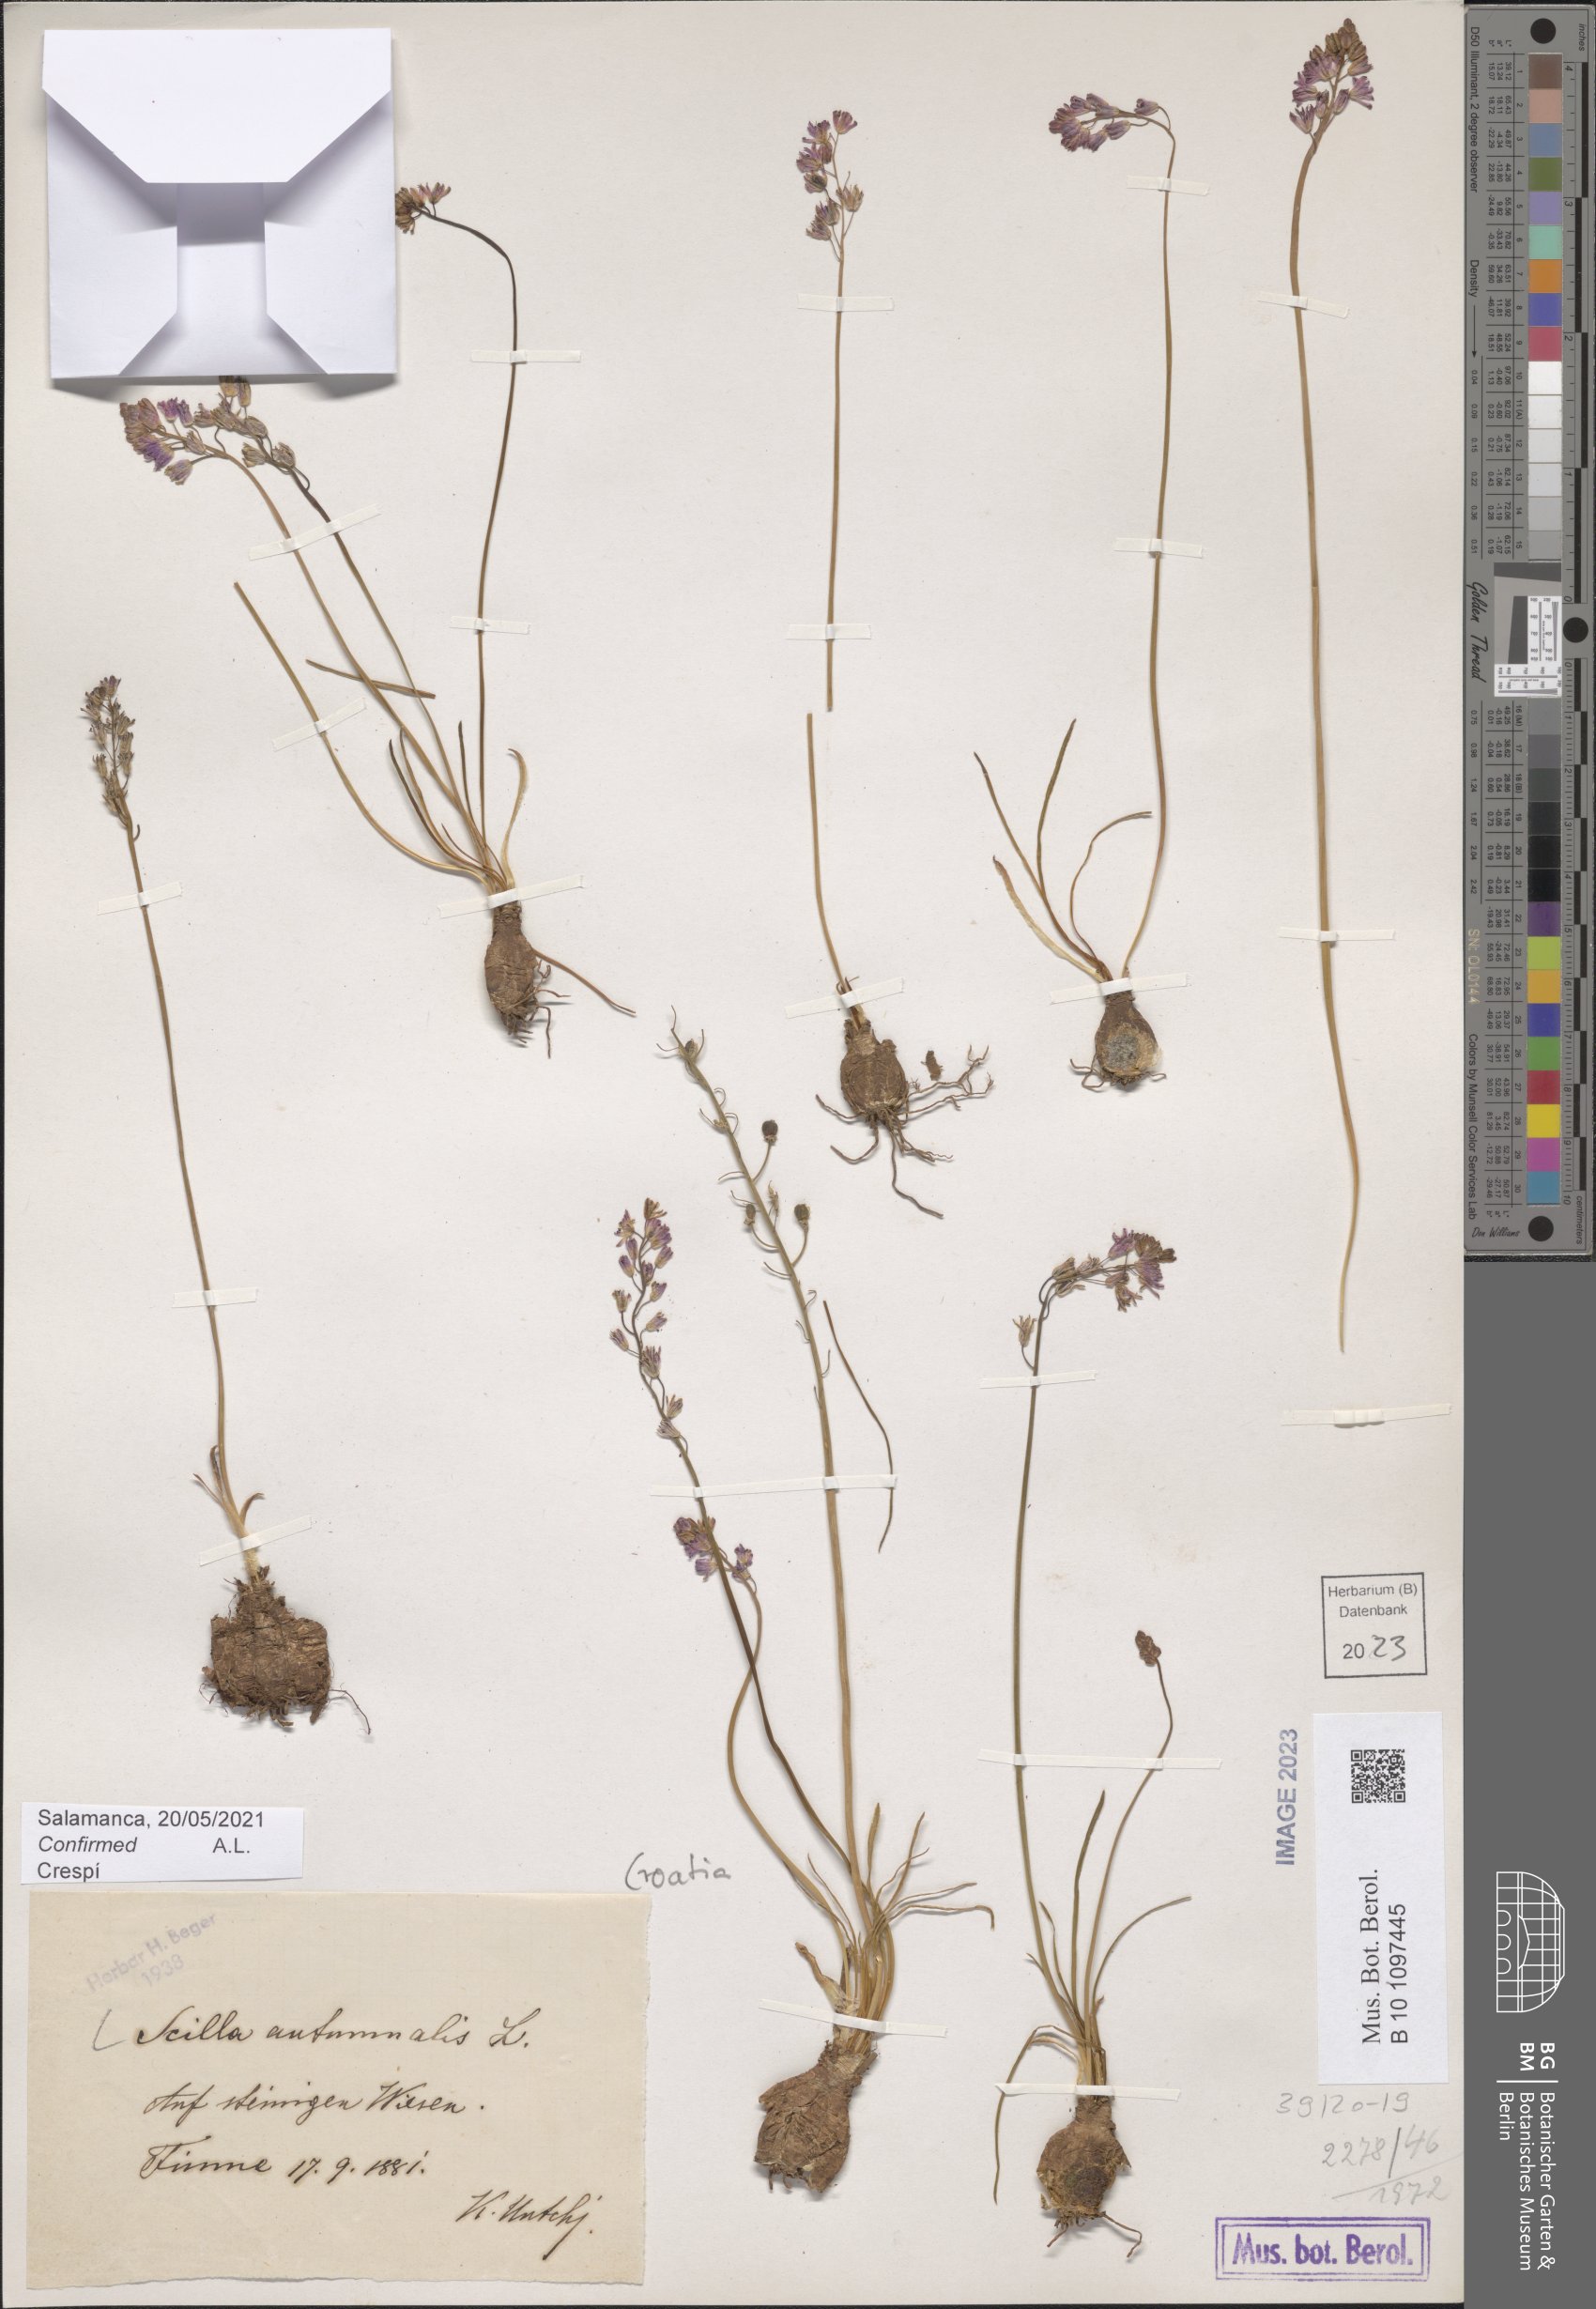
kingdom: Plantae
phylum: Tracheophyta
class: Liliopsida
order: Asparagales
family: Asparagaceae
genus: Prospero
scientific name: Prospero autumnale
